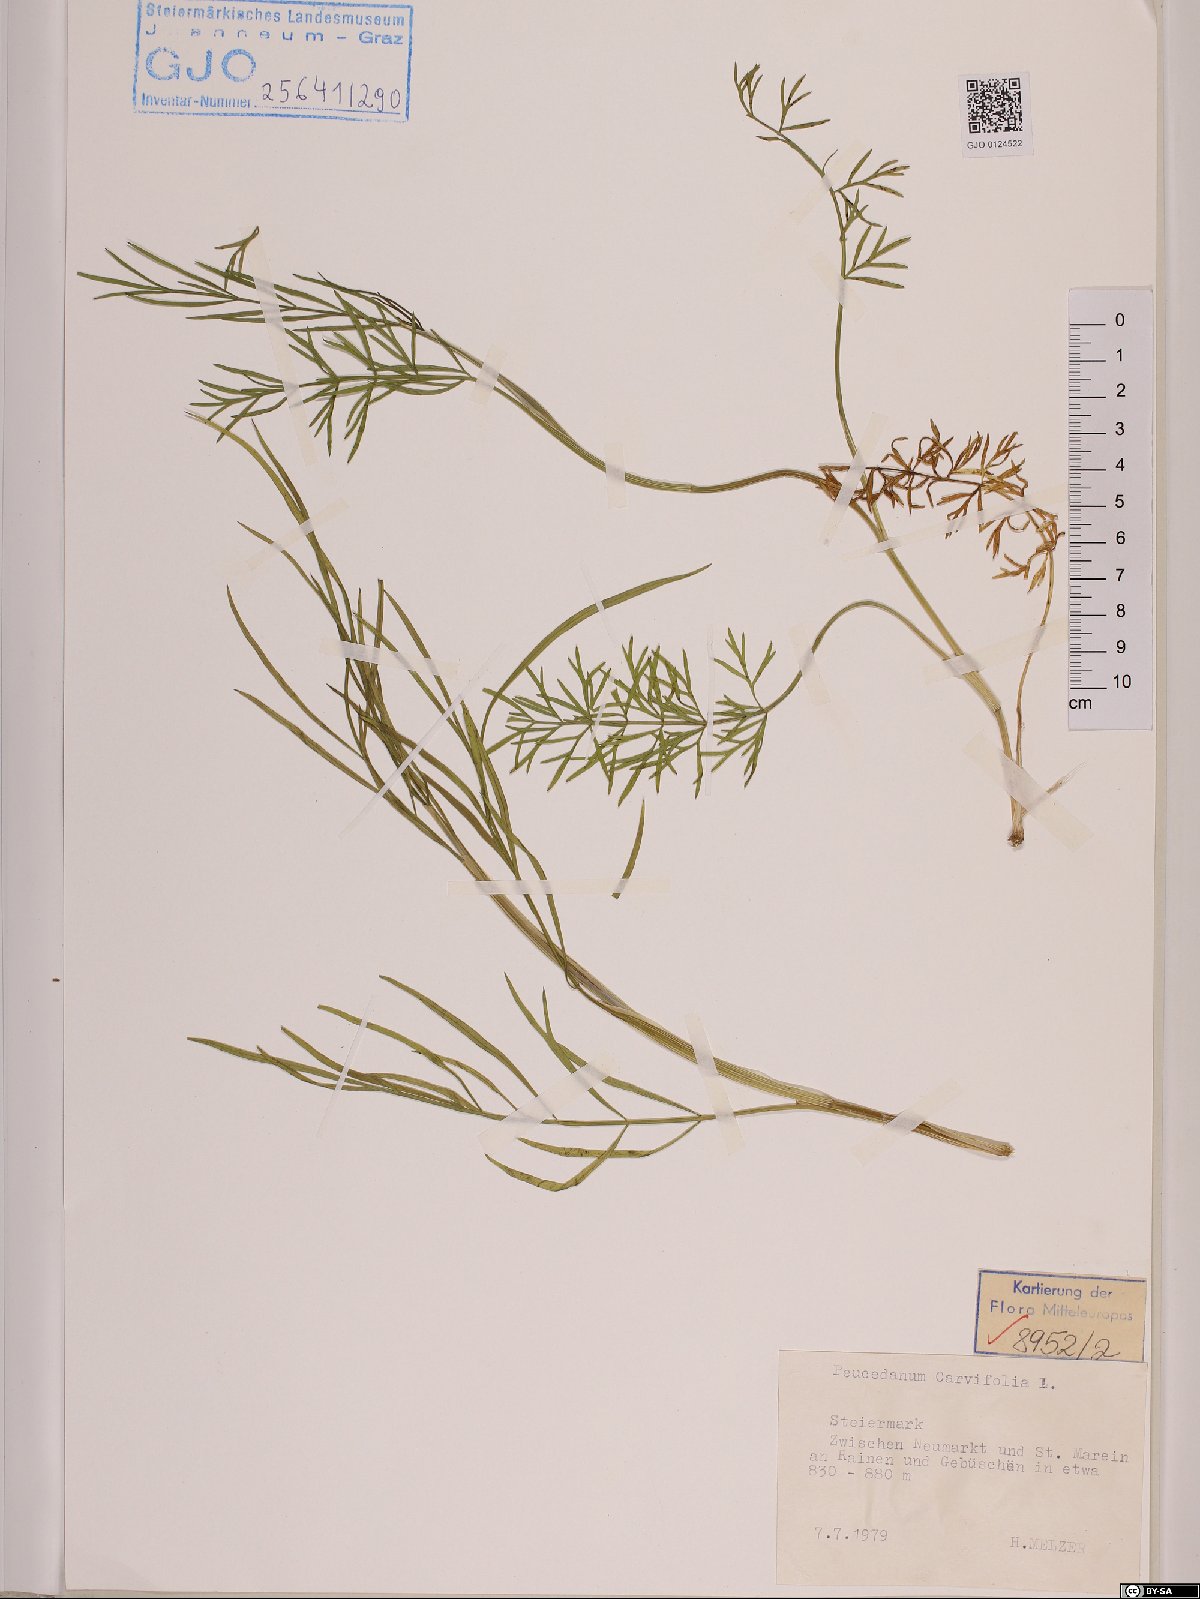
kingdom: Plantae
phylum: Tracheophyta
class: Magnoliopsida
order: Apiales
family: Apiaceae
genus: Dichoropetalum
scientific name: Dichoropetalum carvifolia
